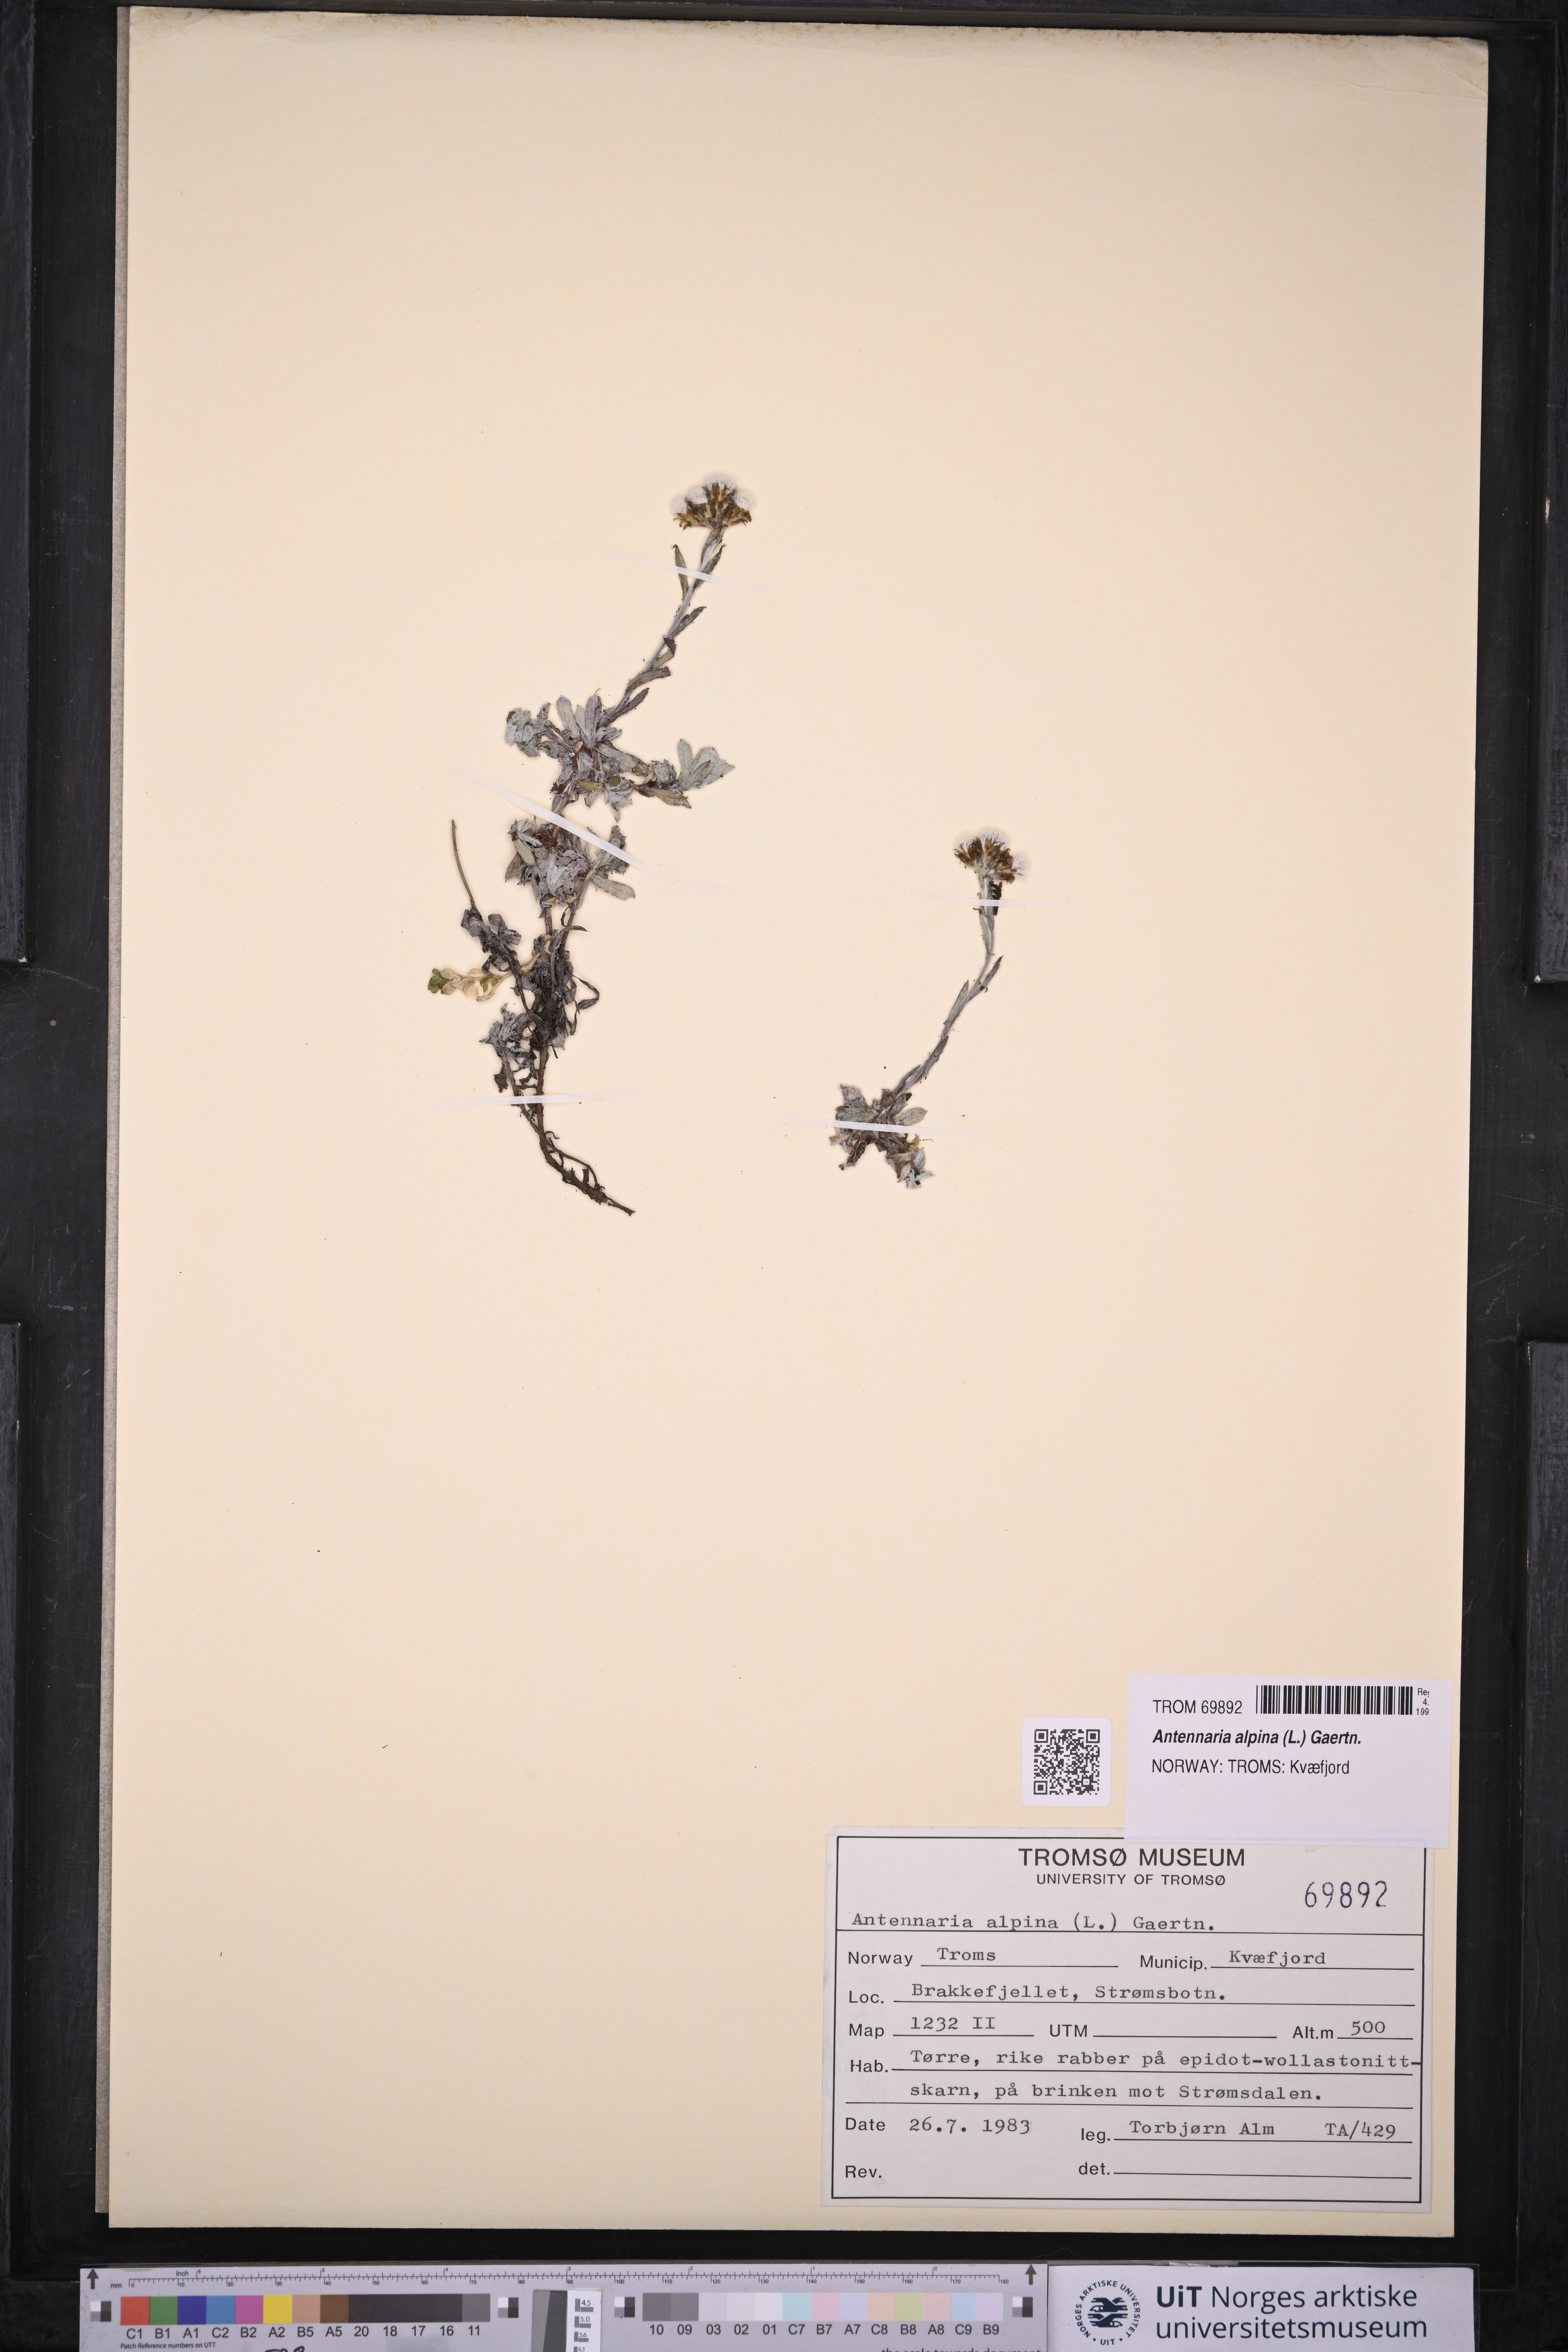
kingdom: Plantae
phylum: Tracheophyta
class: Magnoliopsida
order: Asterales
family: Asteraceae
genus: Antennaria
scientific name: Antennaria alpina
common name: Alpine pussytoes
